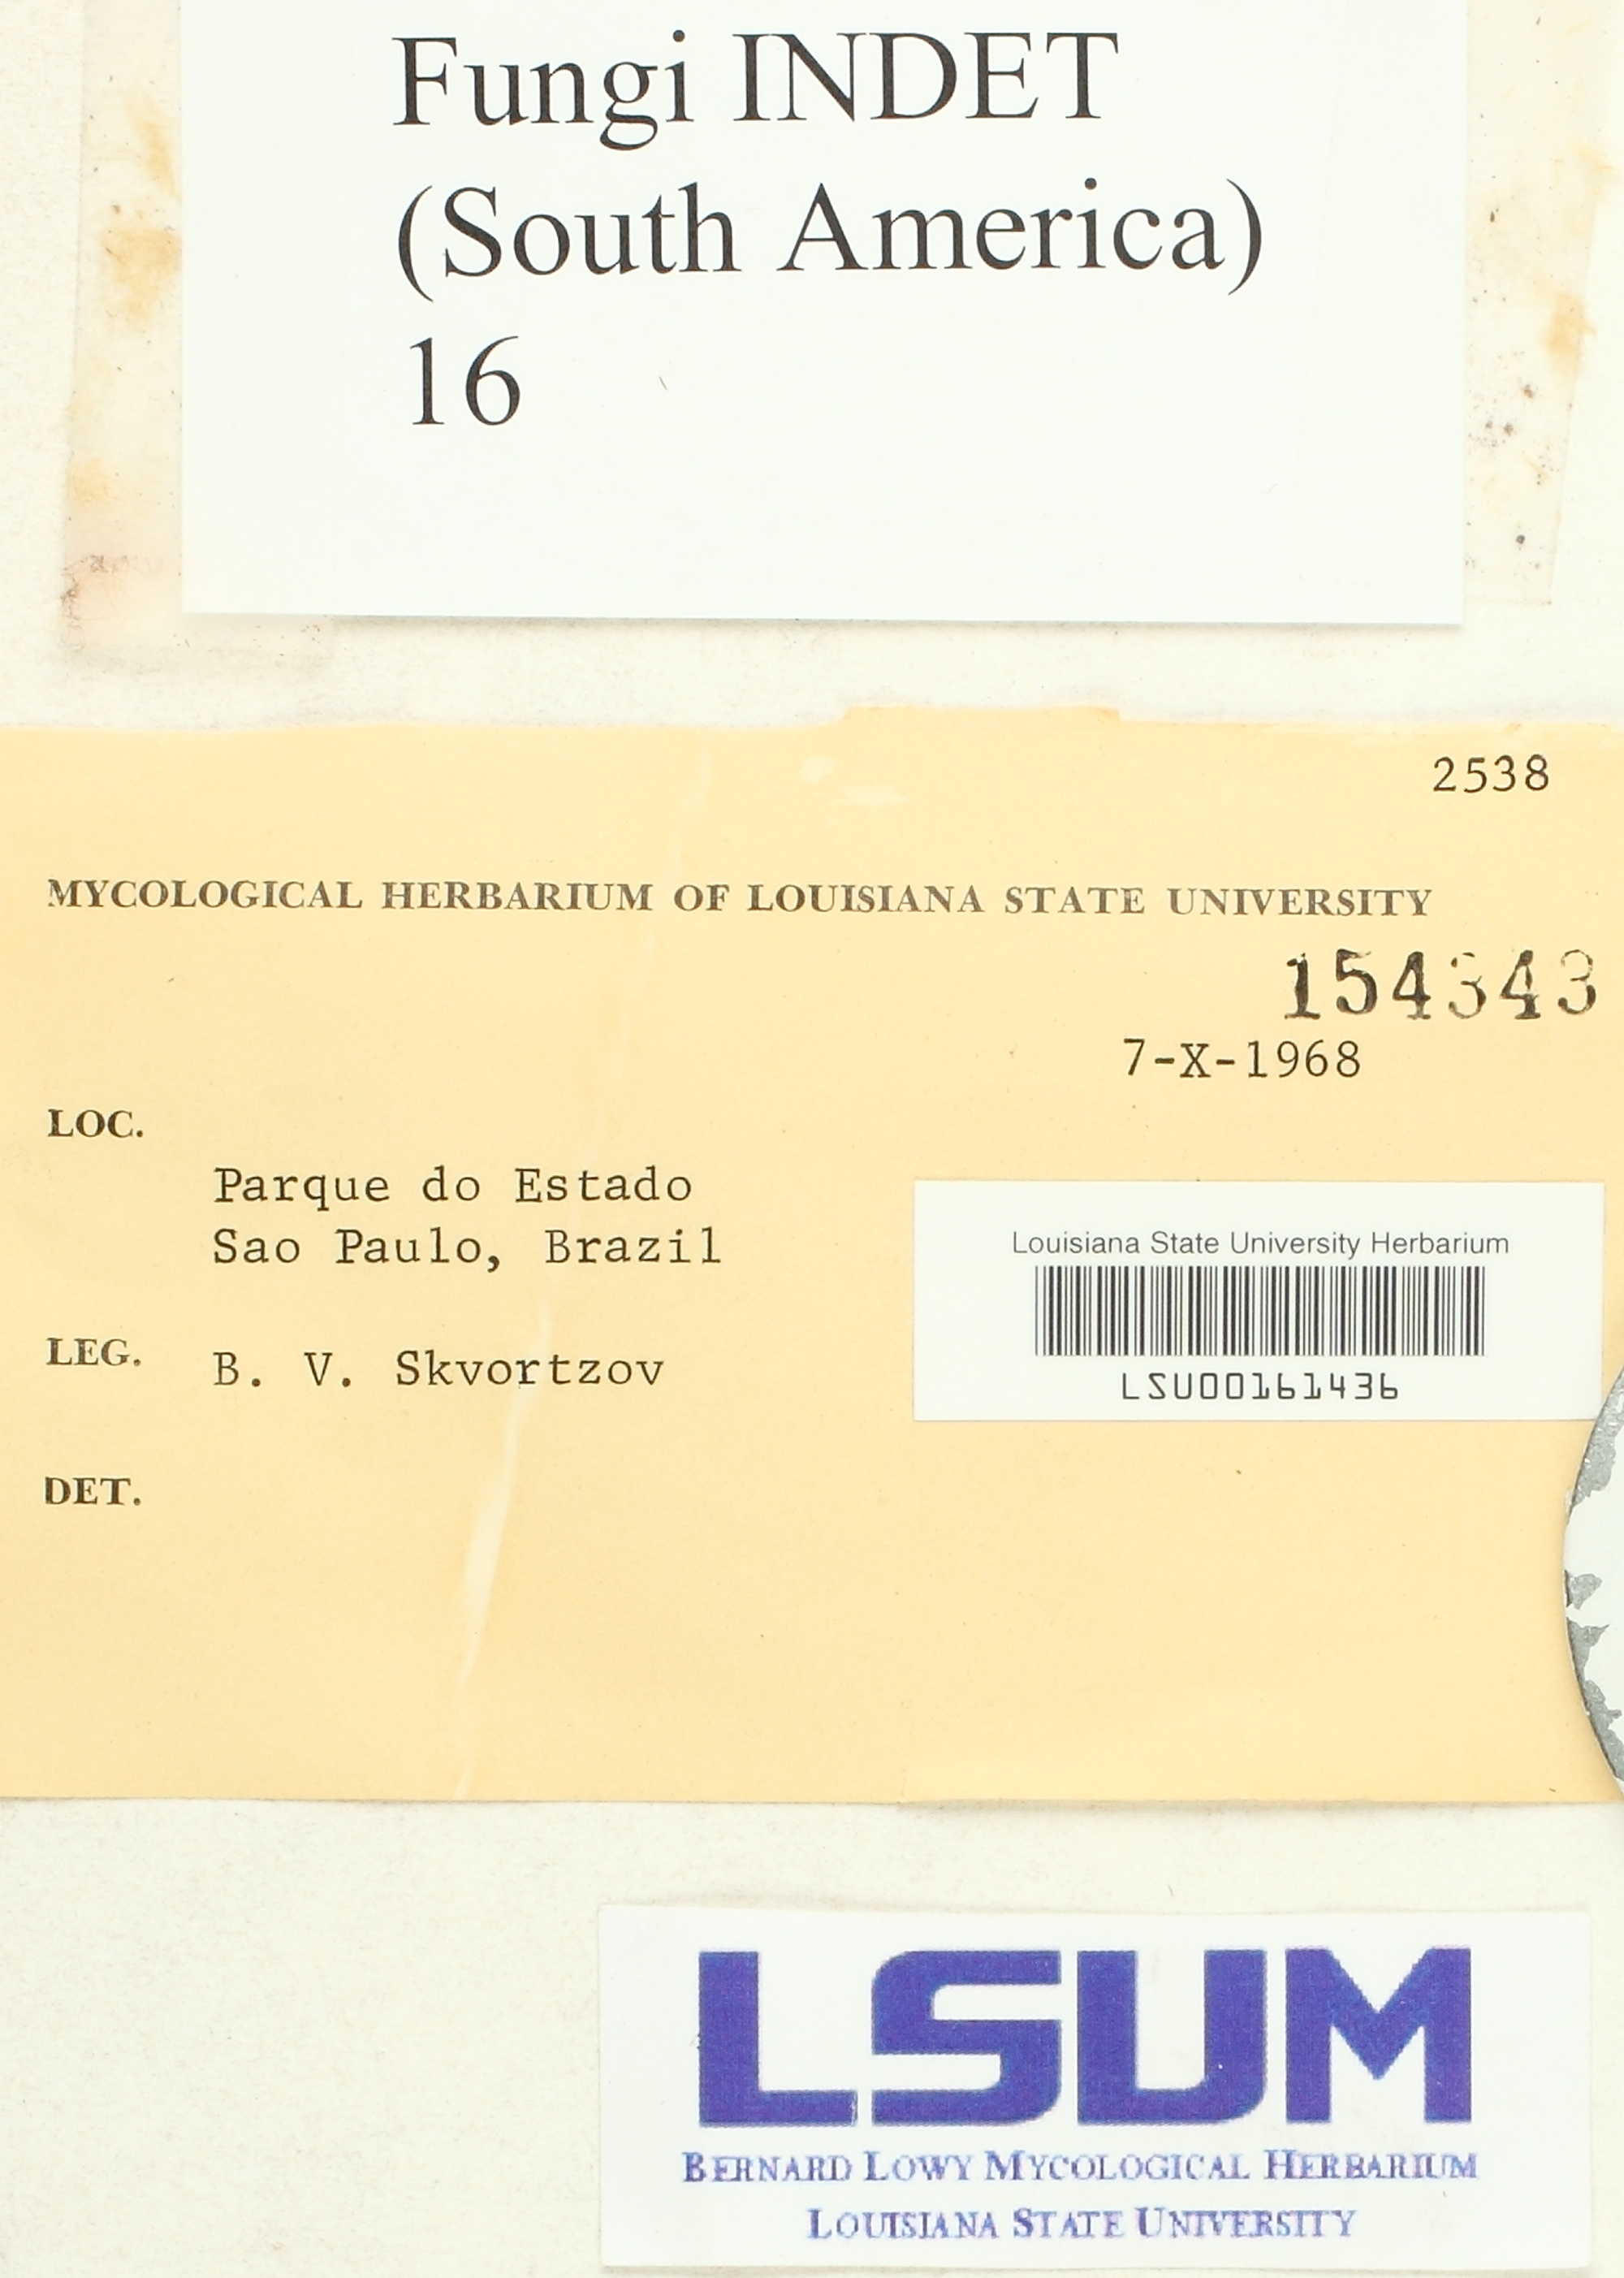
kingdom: Fungi
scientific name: Fungi
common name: Fungi
